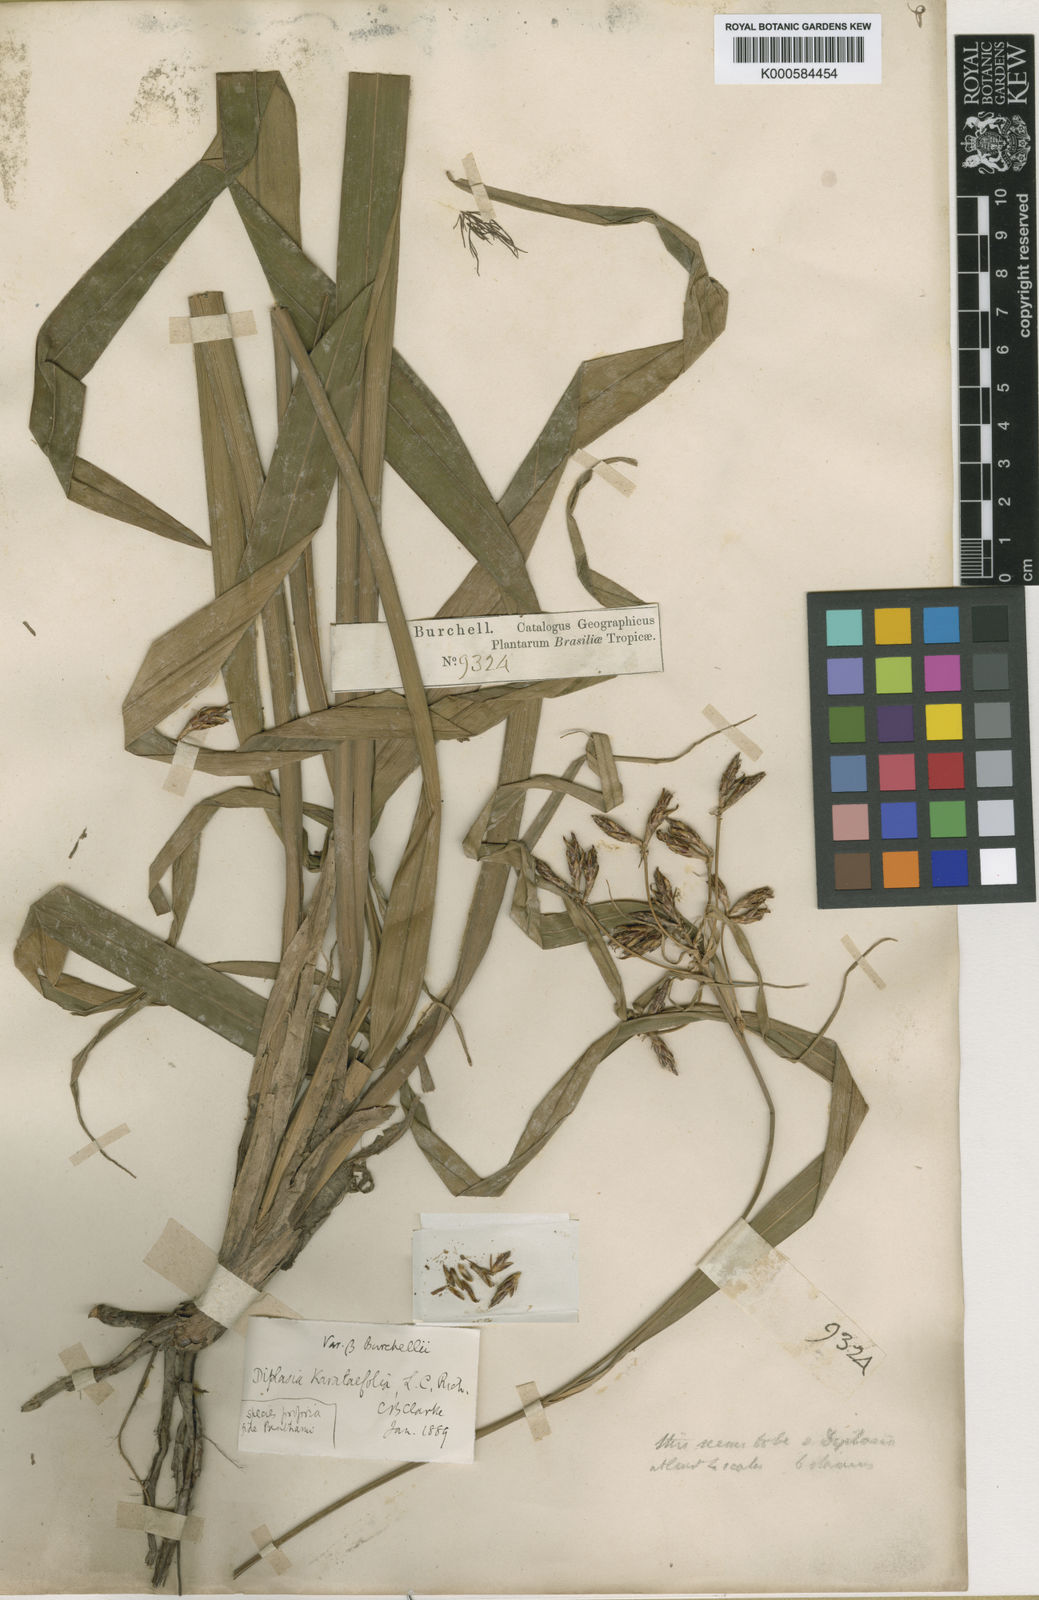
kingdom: Plantae
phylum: Tracheophyta
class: Liliopsida
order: Poales
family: Cyperaceae
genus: Diplasia
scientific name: Diplasia
